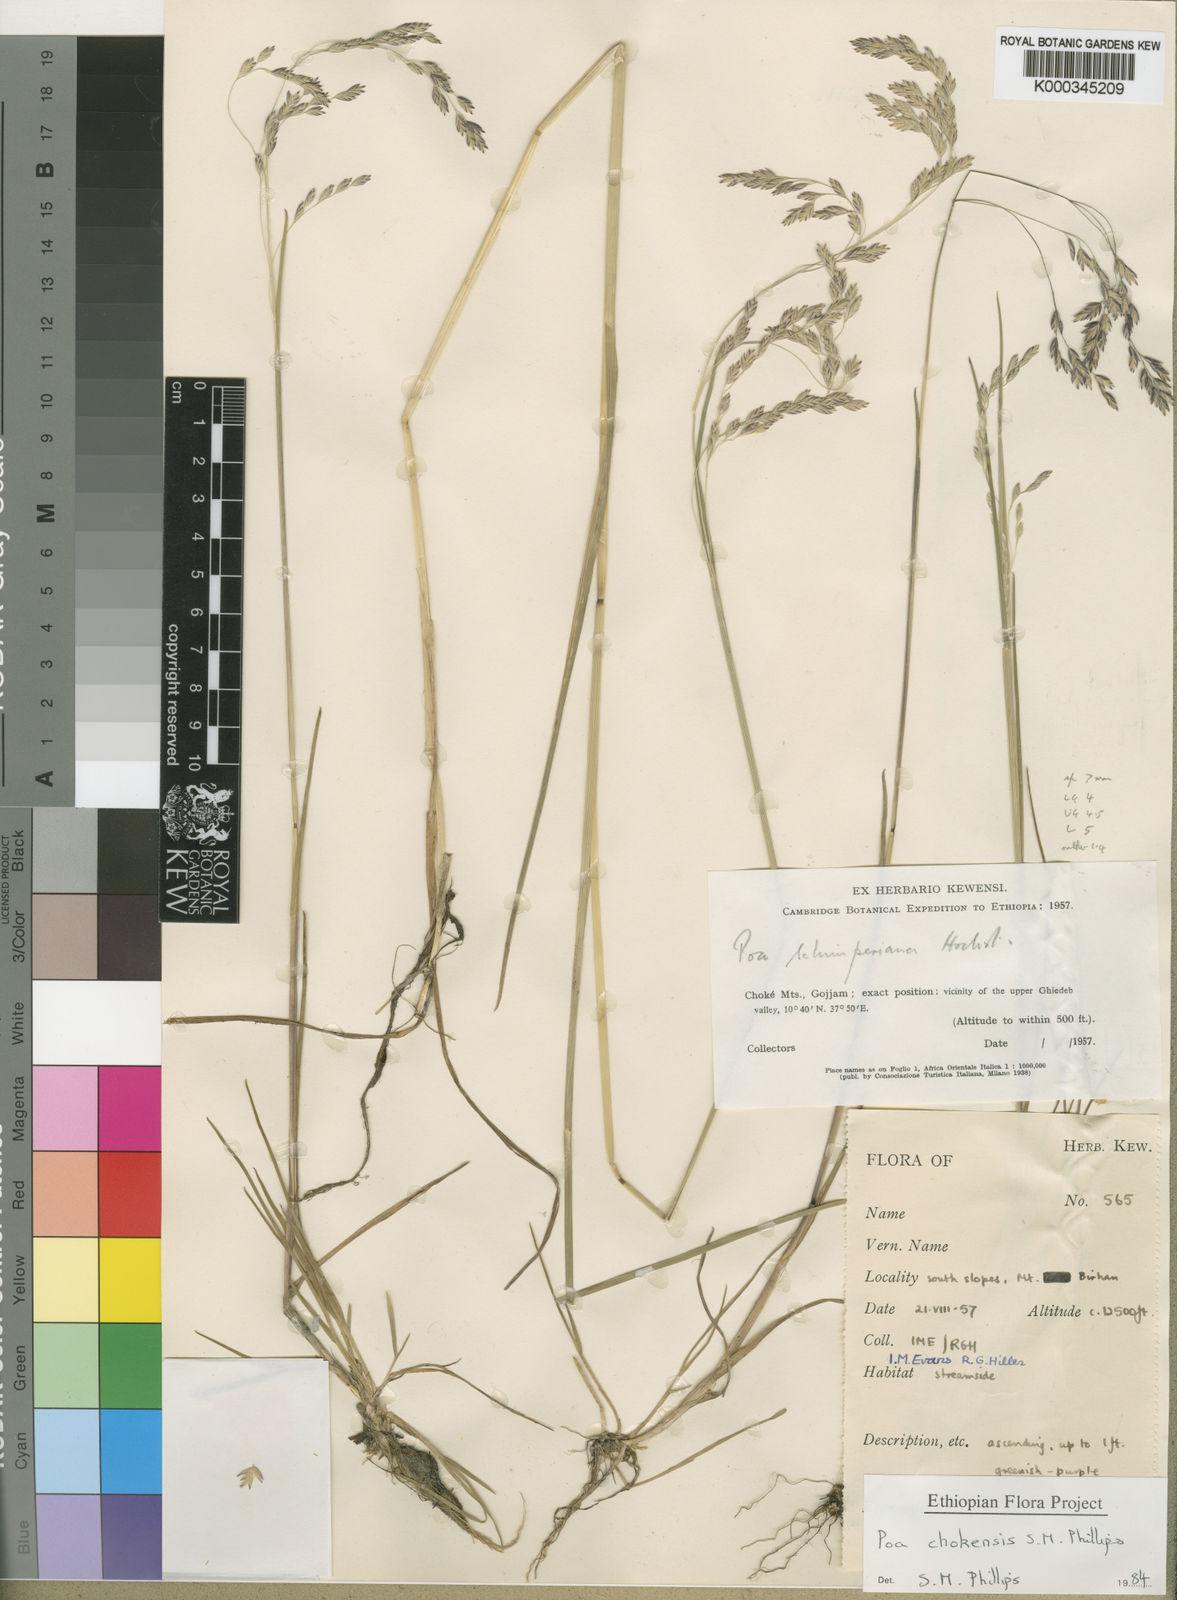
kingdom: Plantae
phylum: Tracheophyta
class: Liliopsida
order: Poales
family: Poaceae
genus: Poa
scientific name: Poa chokensis
